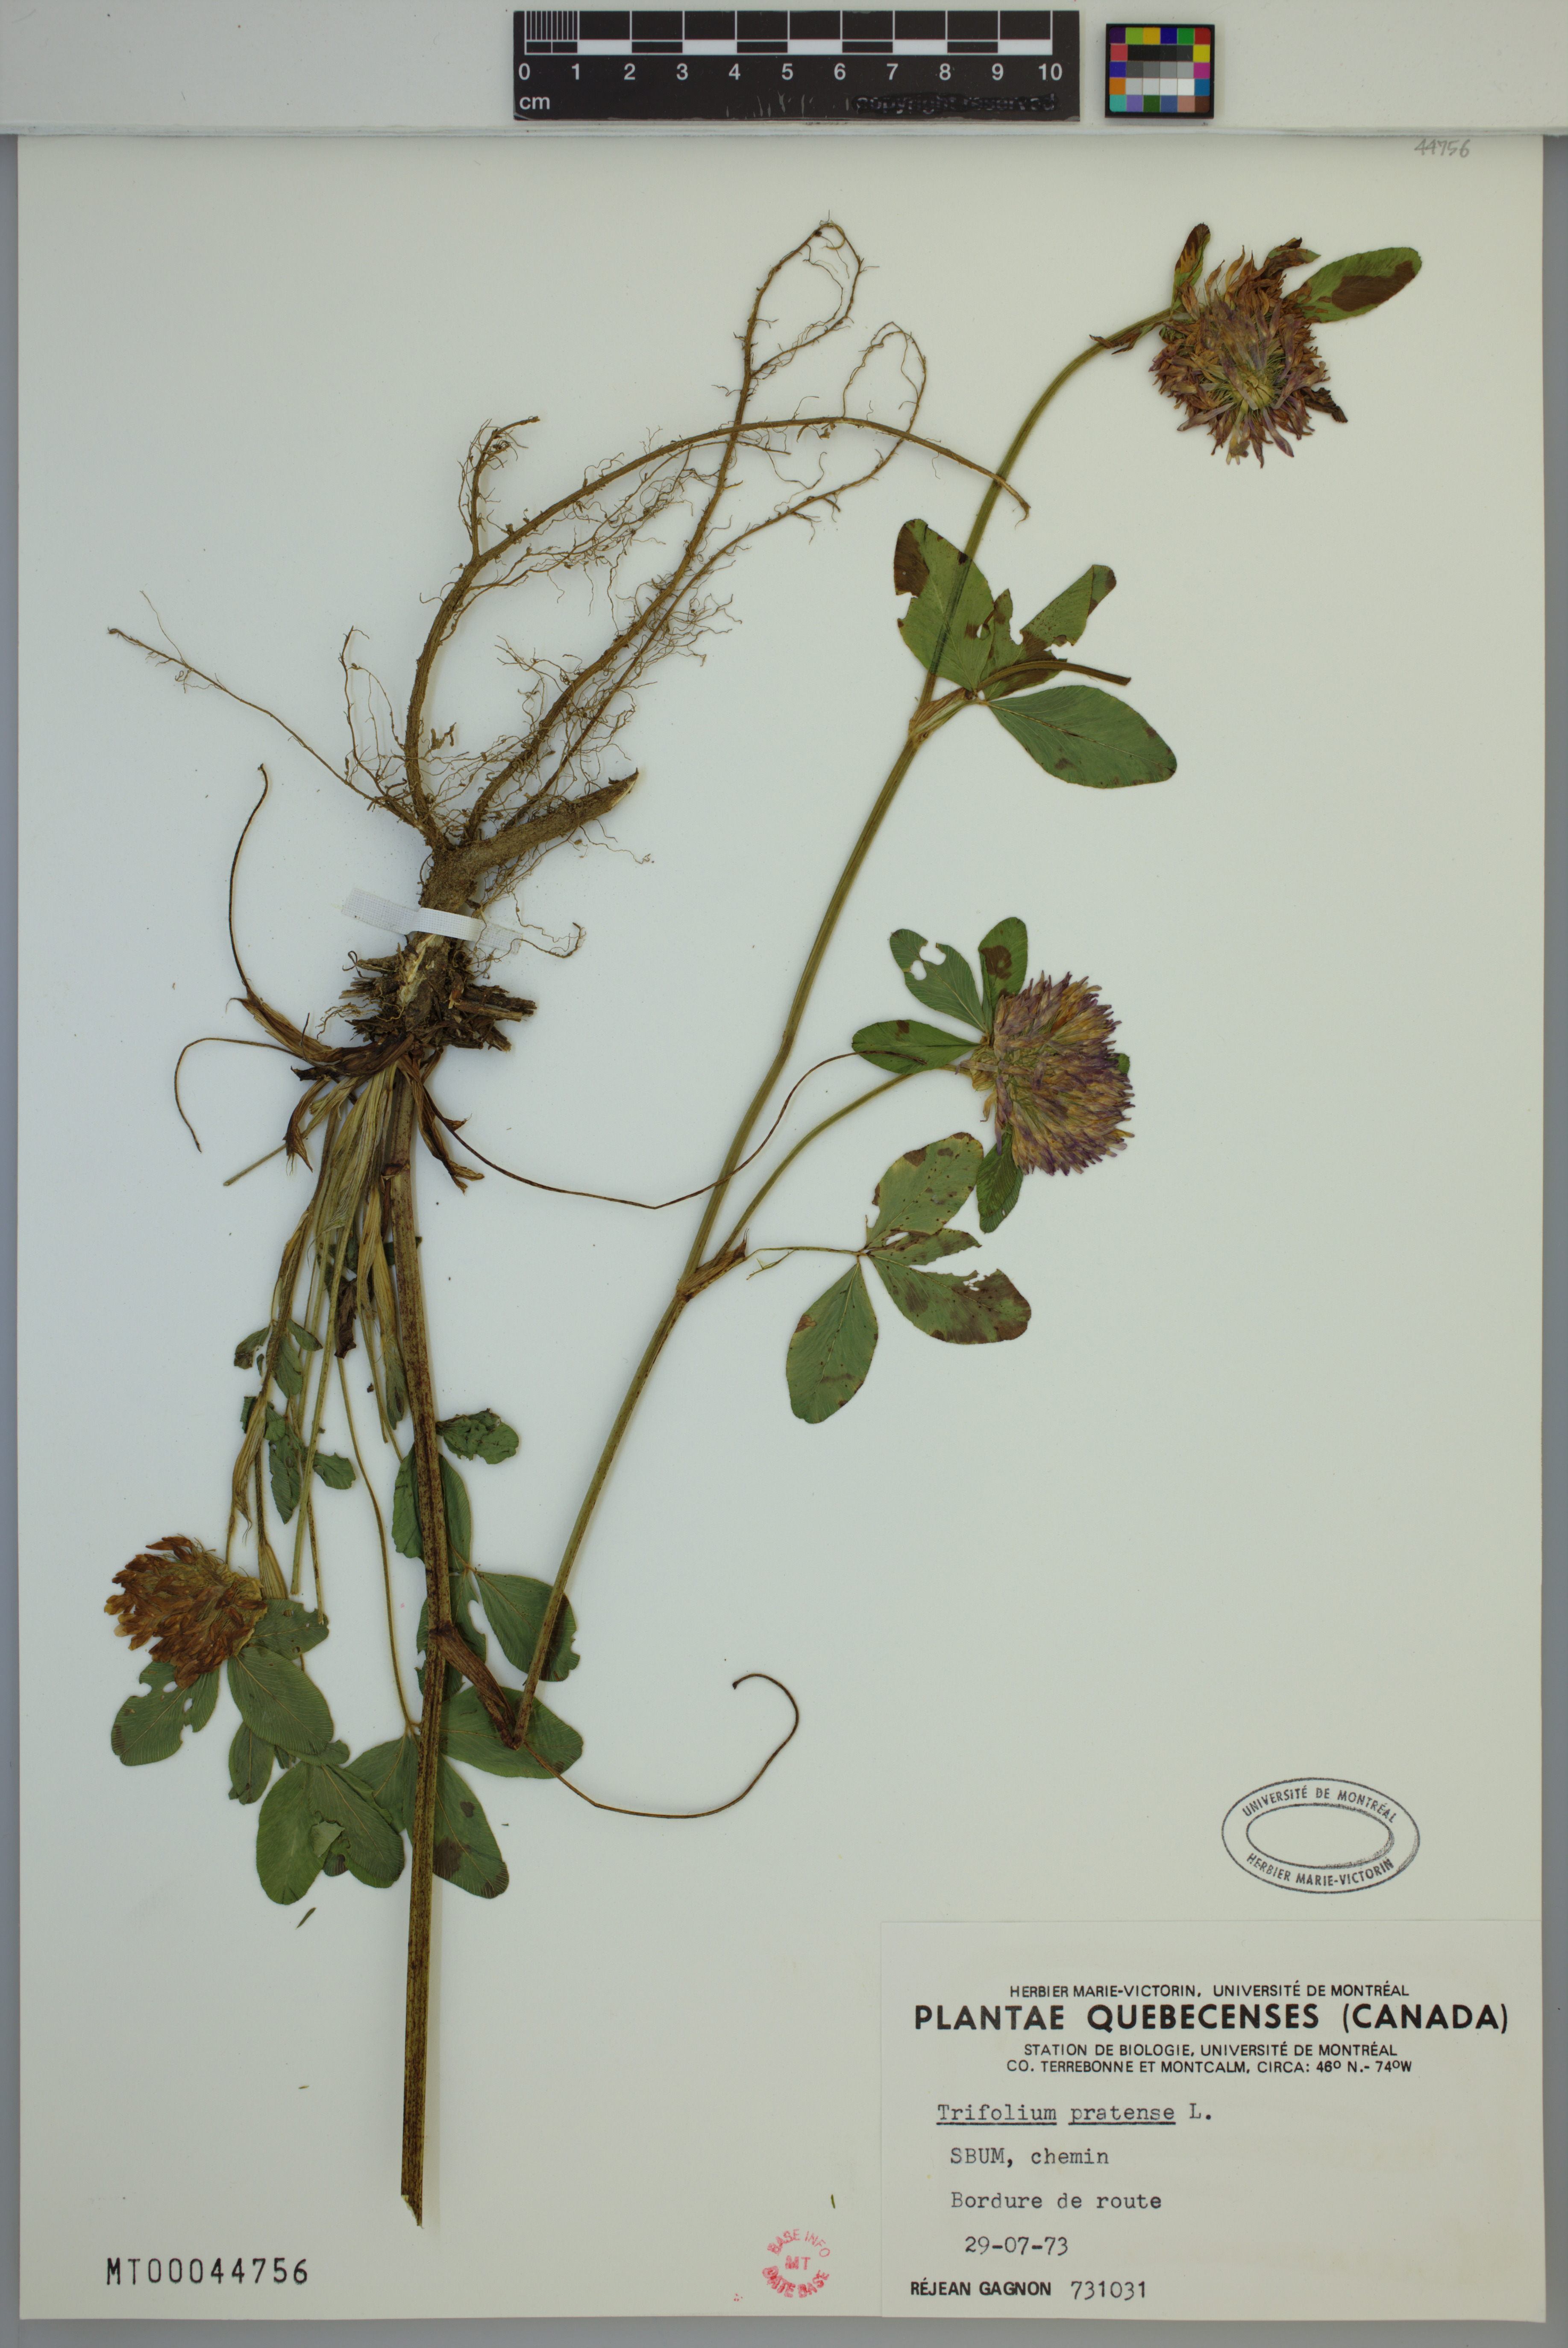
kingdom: Plantae
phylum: Tracheophyta
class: Magnoliopsida
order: Fabales
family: Fabaceae
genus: Trifolium
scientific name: Trifolium pratense
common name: Red clover
